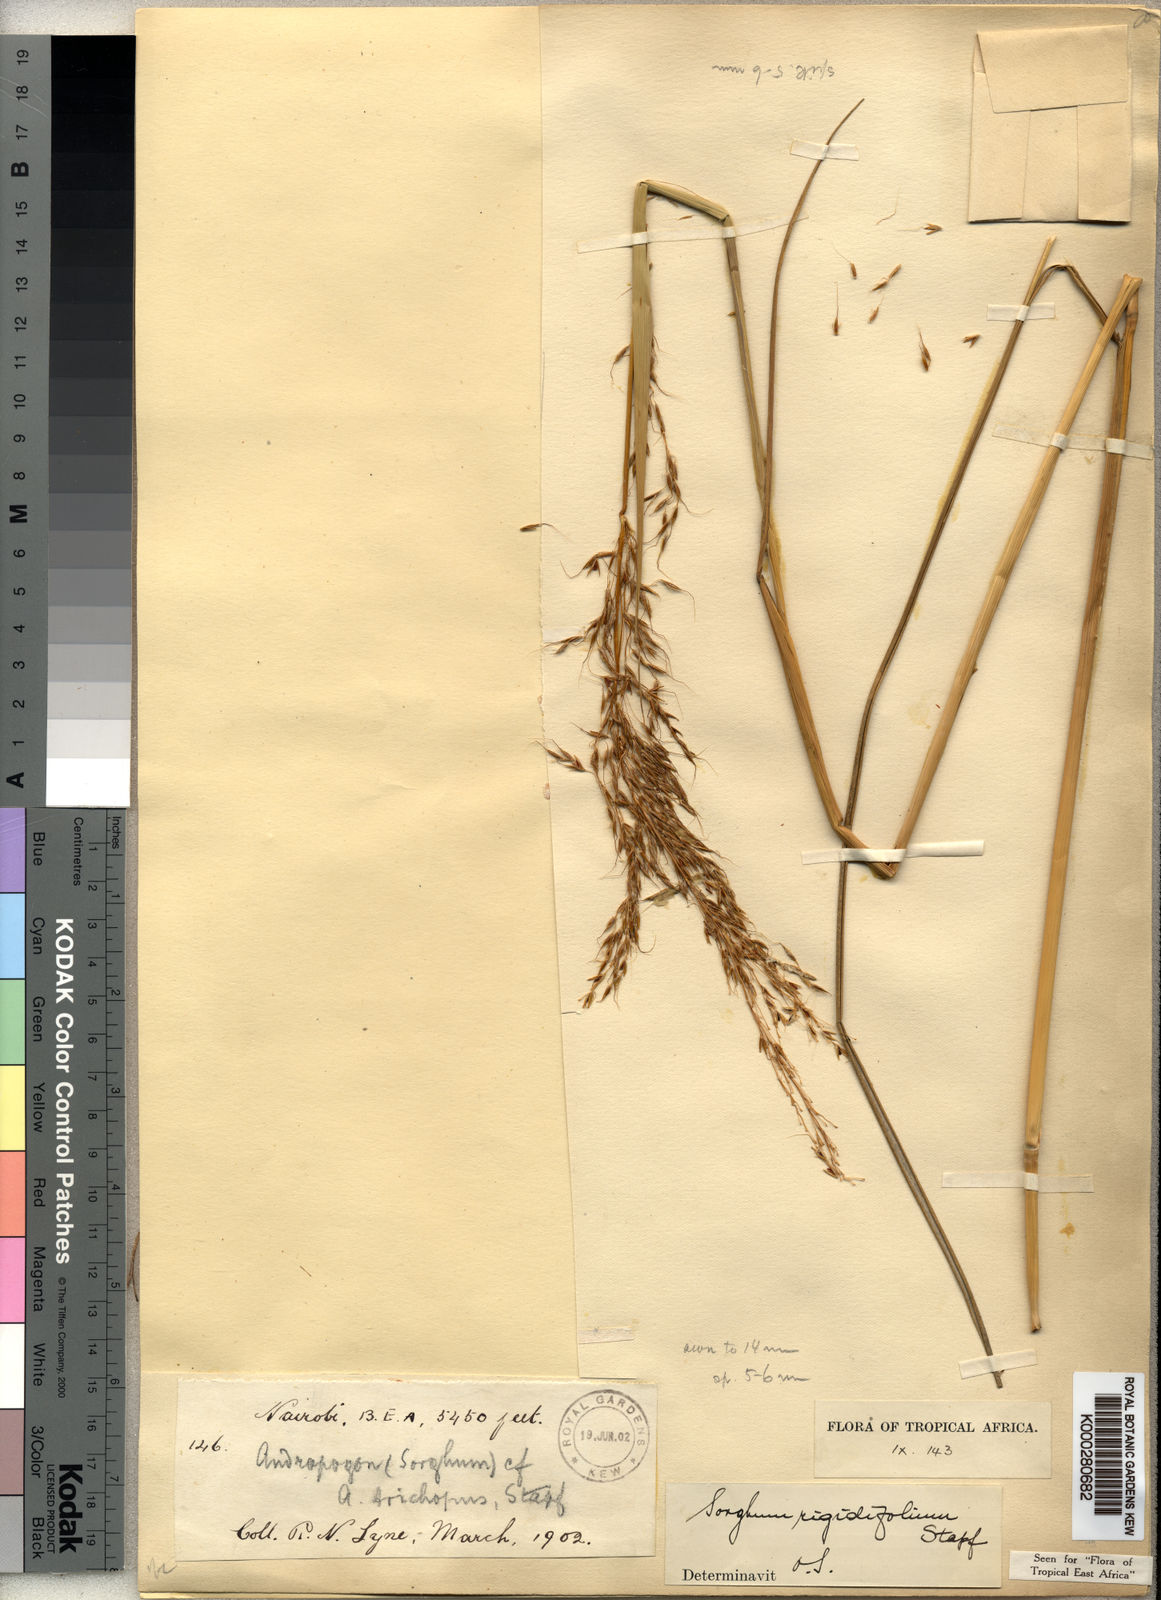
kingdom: Plantae
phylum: Tracheophyta
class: Liliopsida
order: Poales
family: Poaceae
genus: Sorghastrum
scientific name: Sorghastrum stipoides
